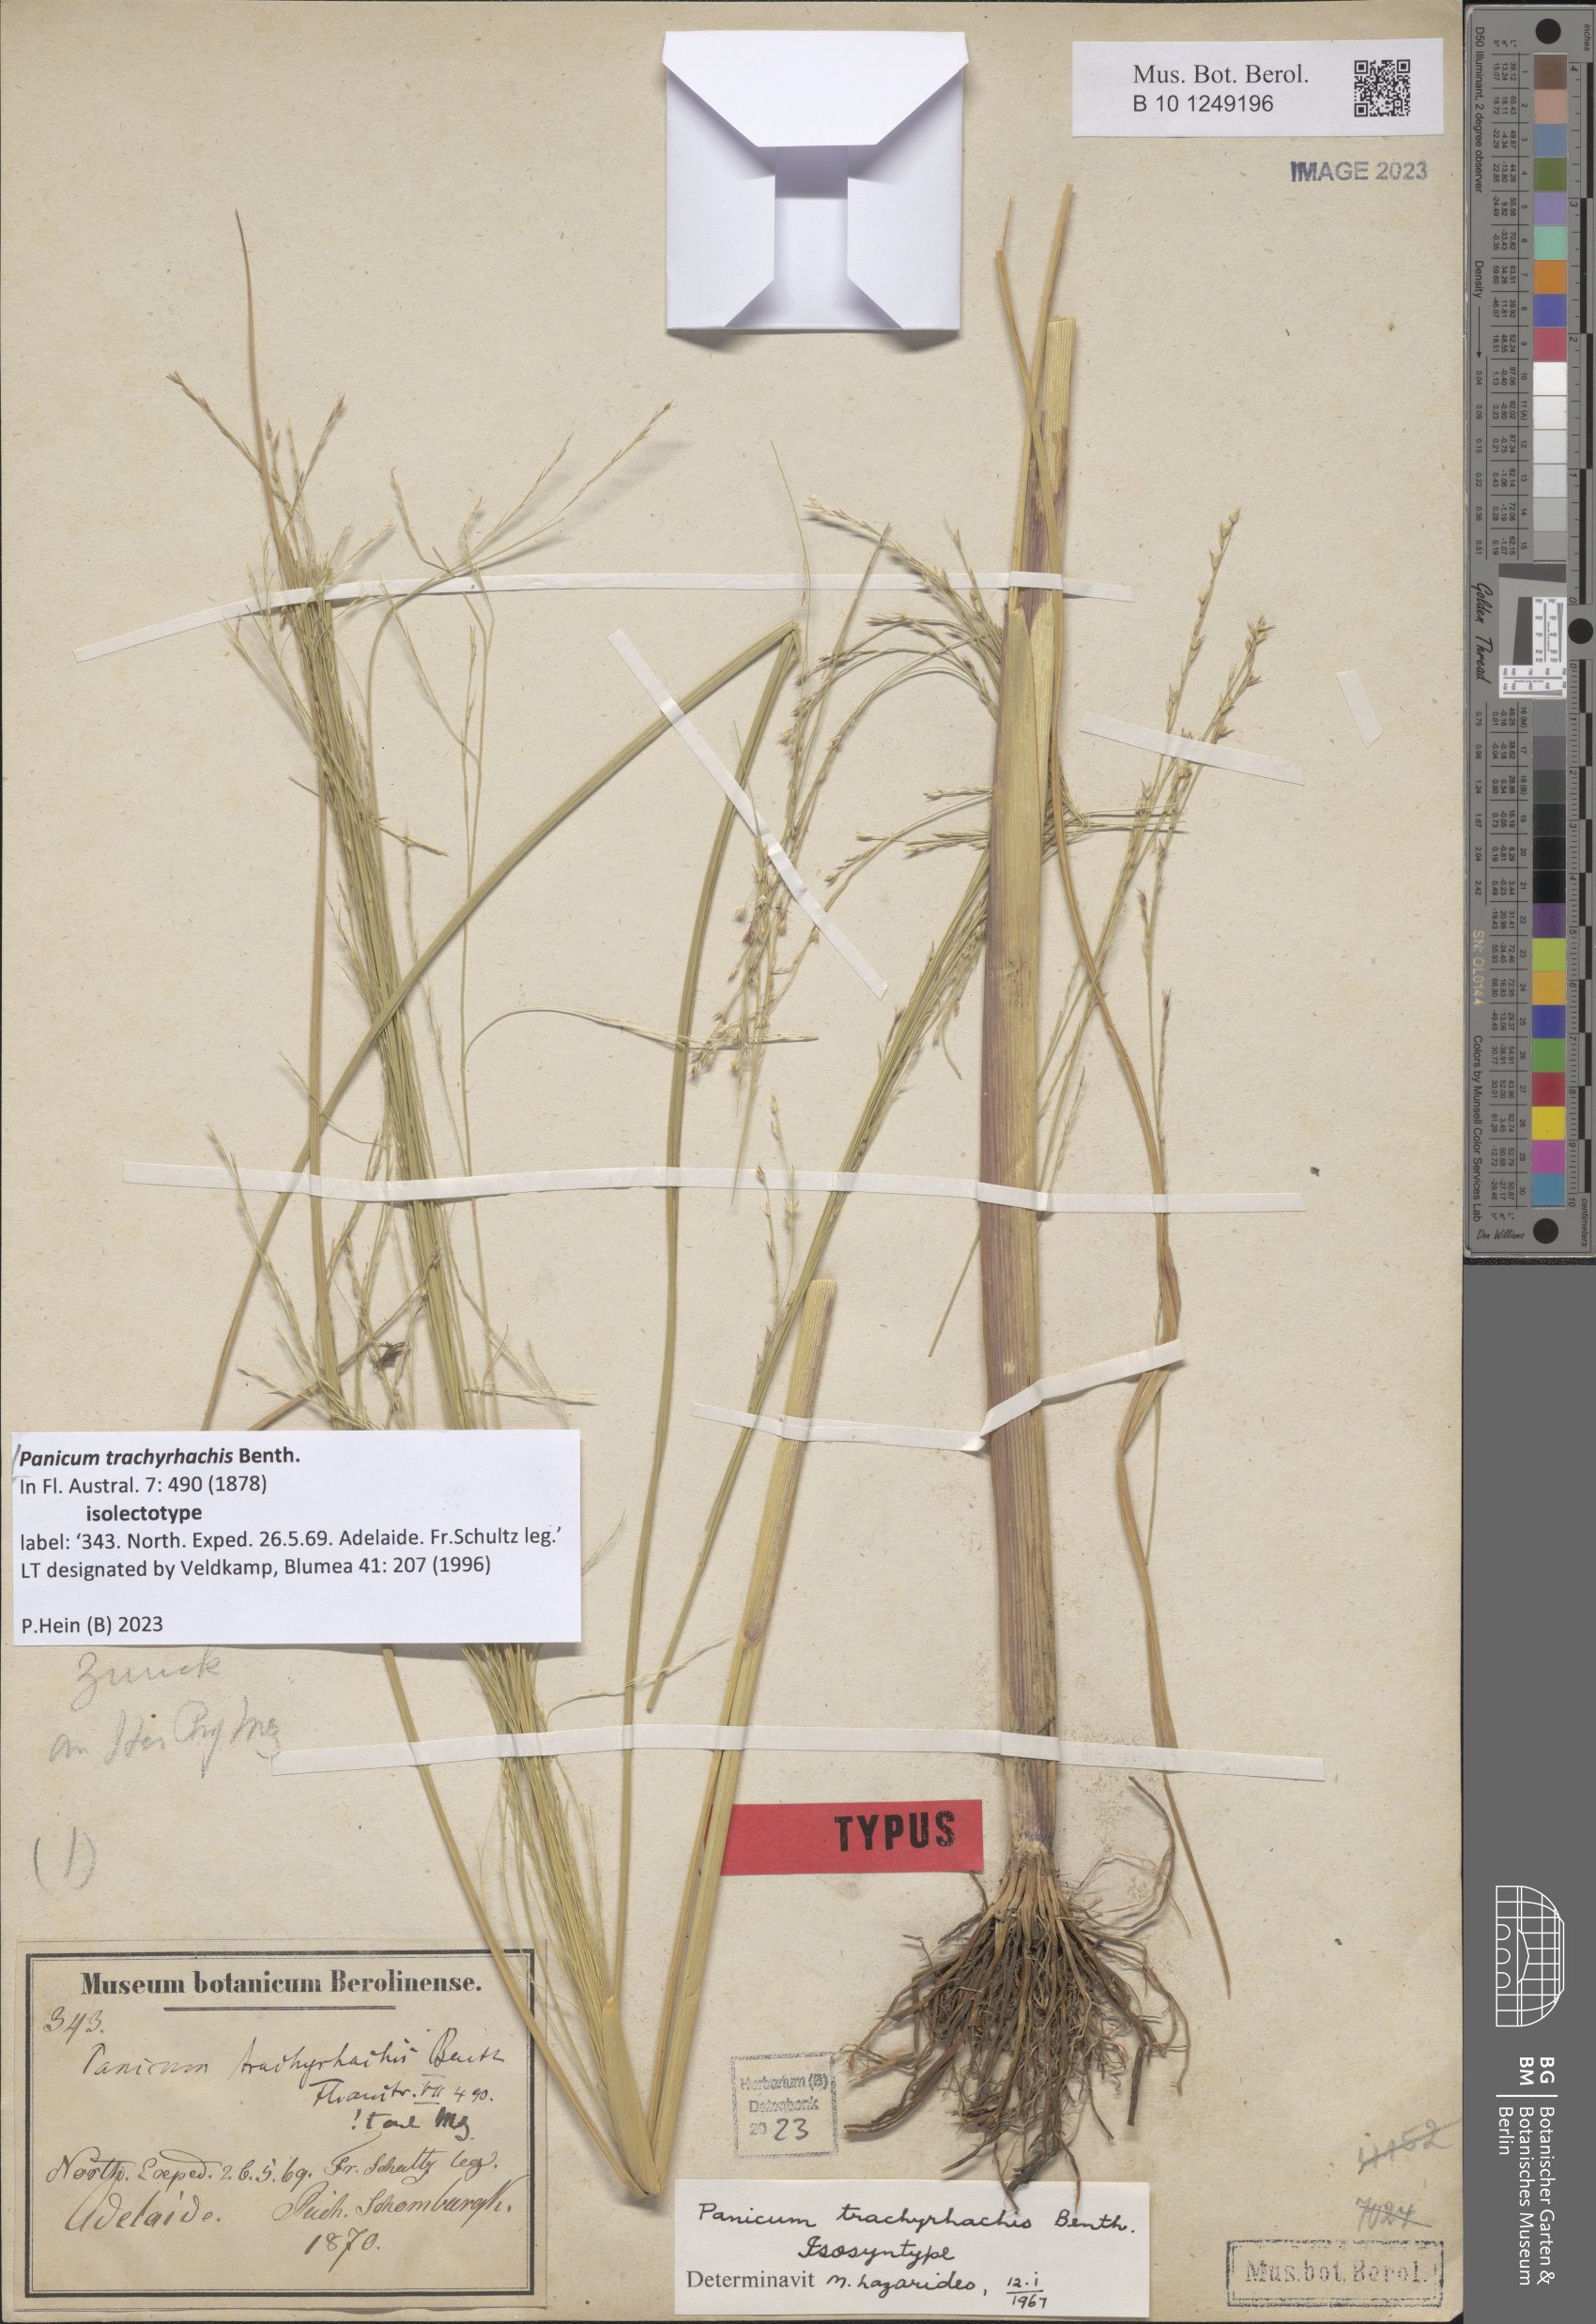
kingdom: Plantae
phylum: Tracheophyta
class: Liliopsida
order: Poales
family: Poaceae
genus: Panicum
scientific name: Panicum trachyrhachis
